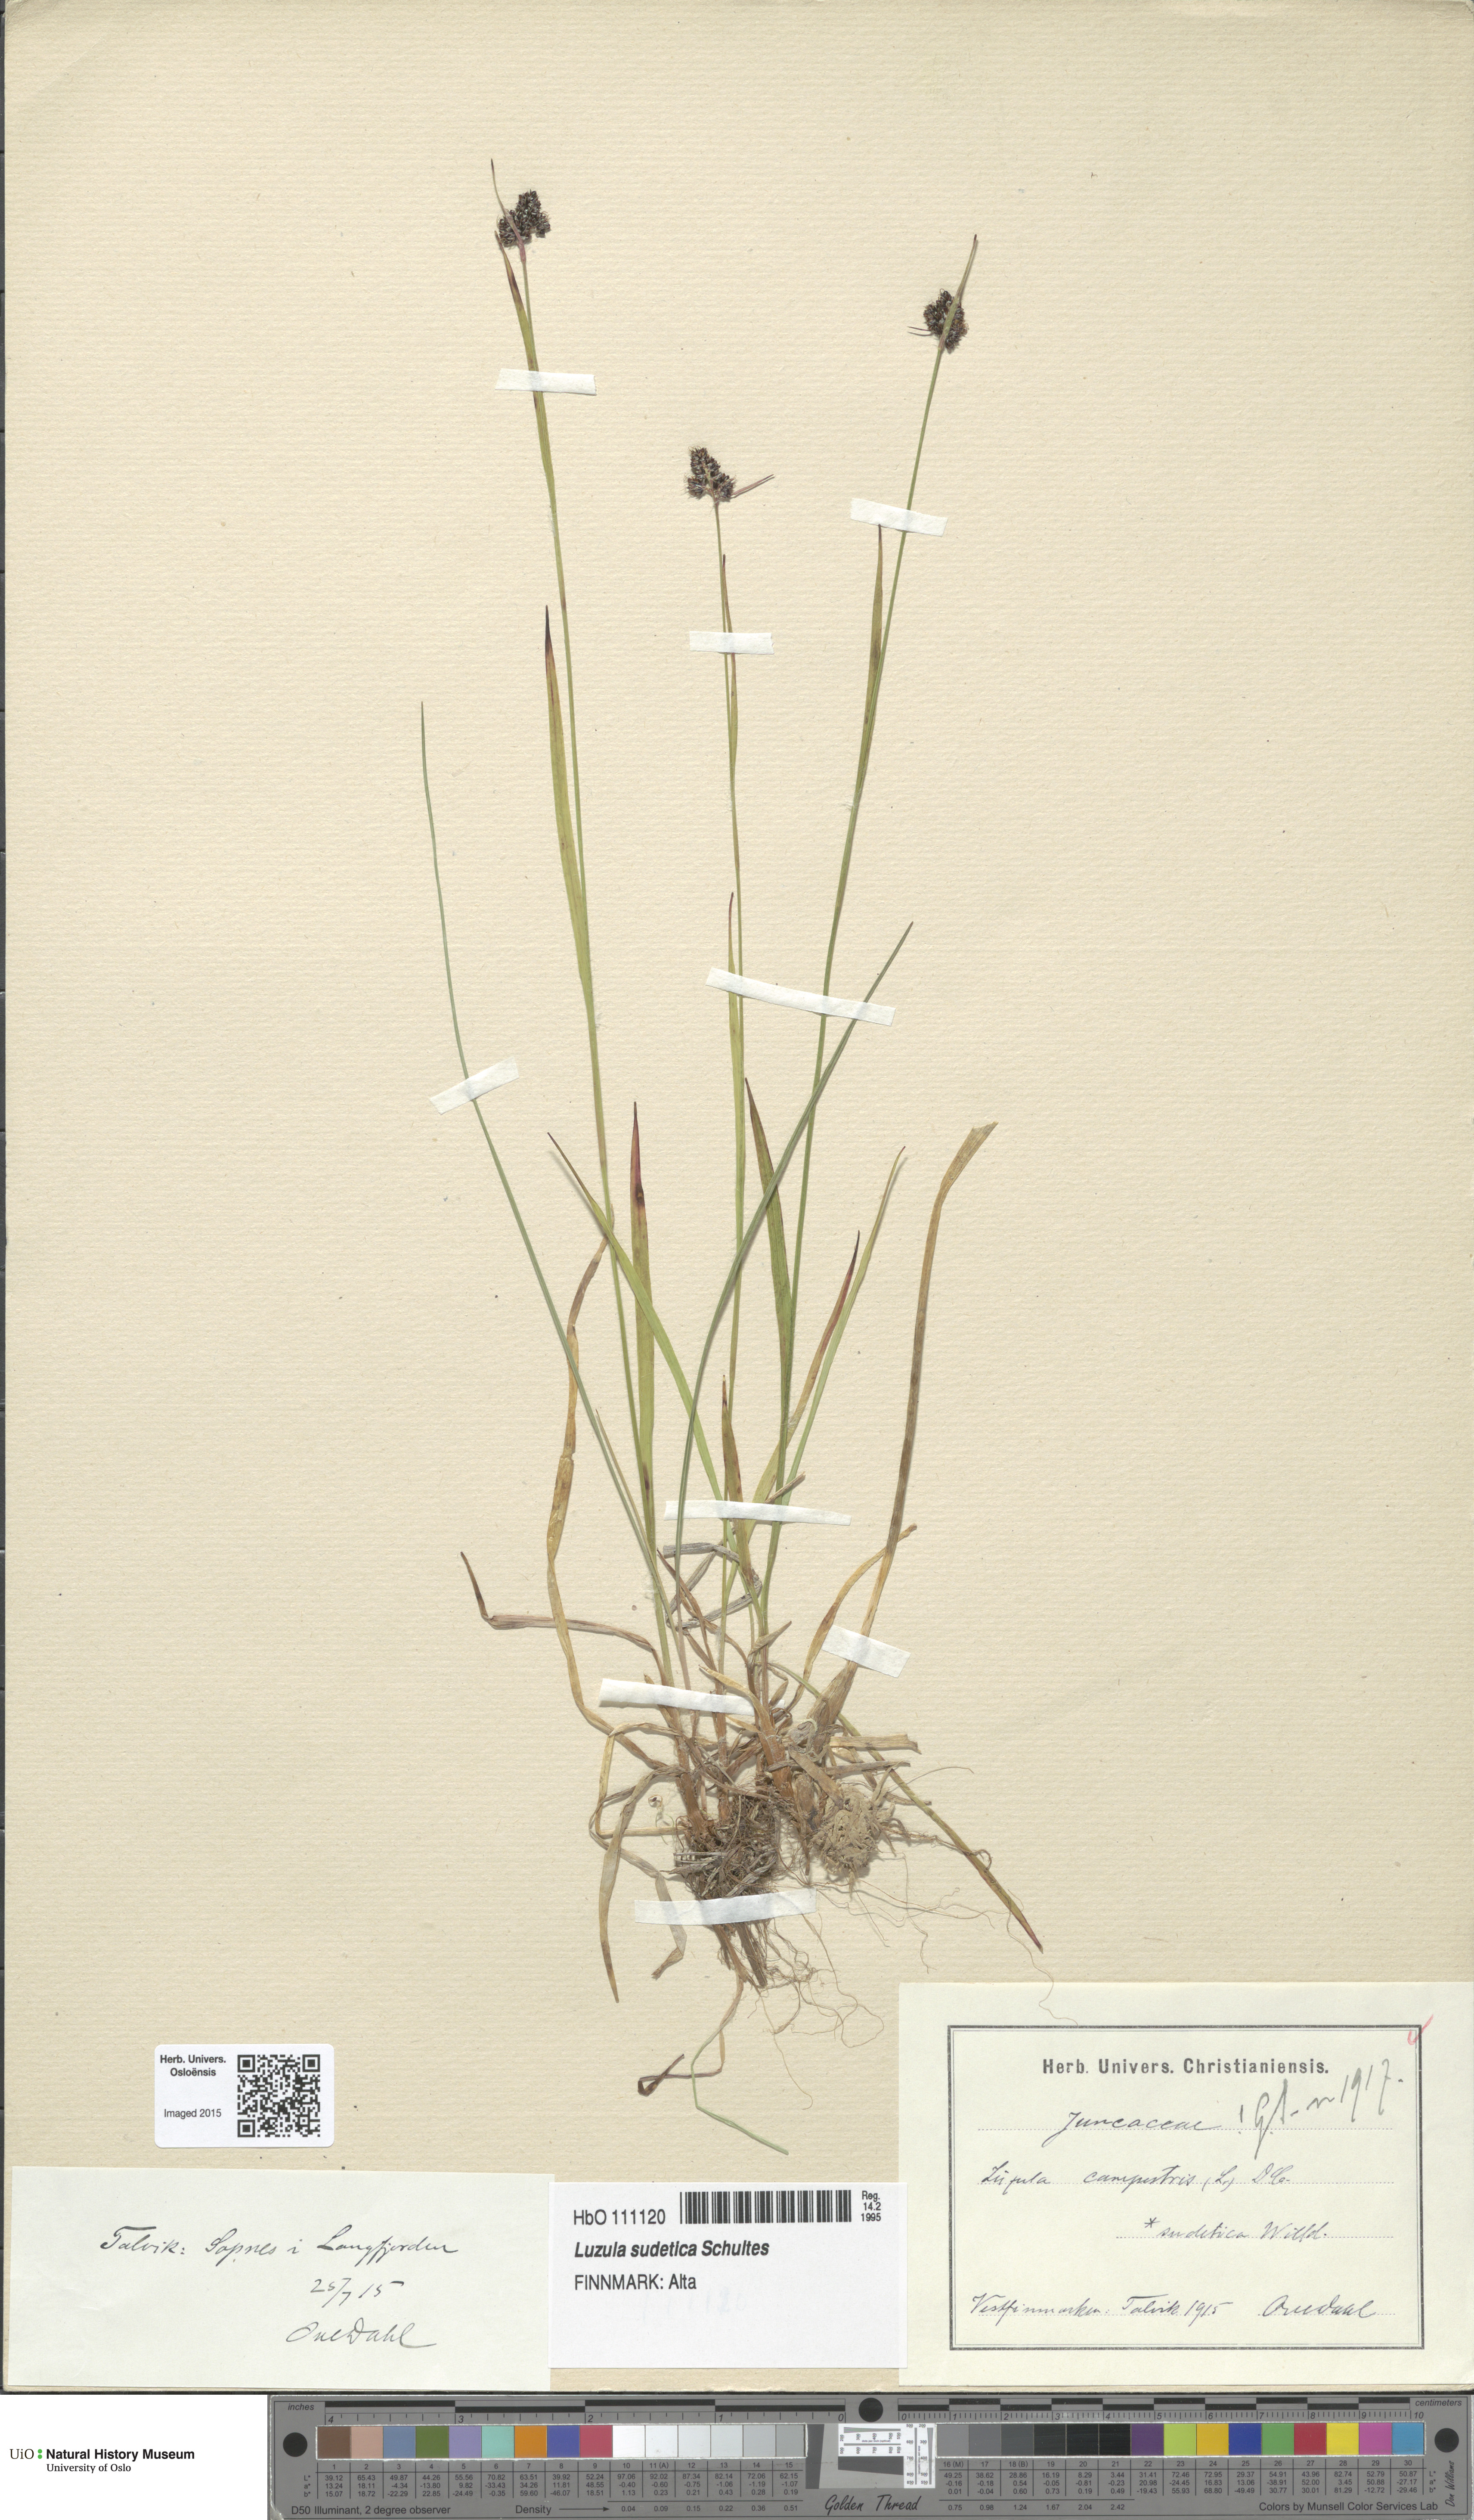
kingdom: Plantae
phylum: Tracheophyta
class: Liliopsida
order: Poales
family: Juncaceae
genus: Luzula
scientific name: Luzula sudetica
